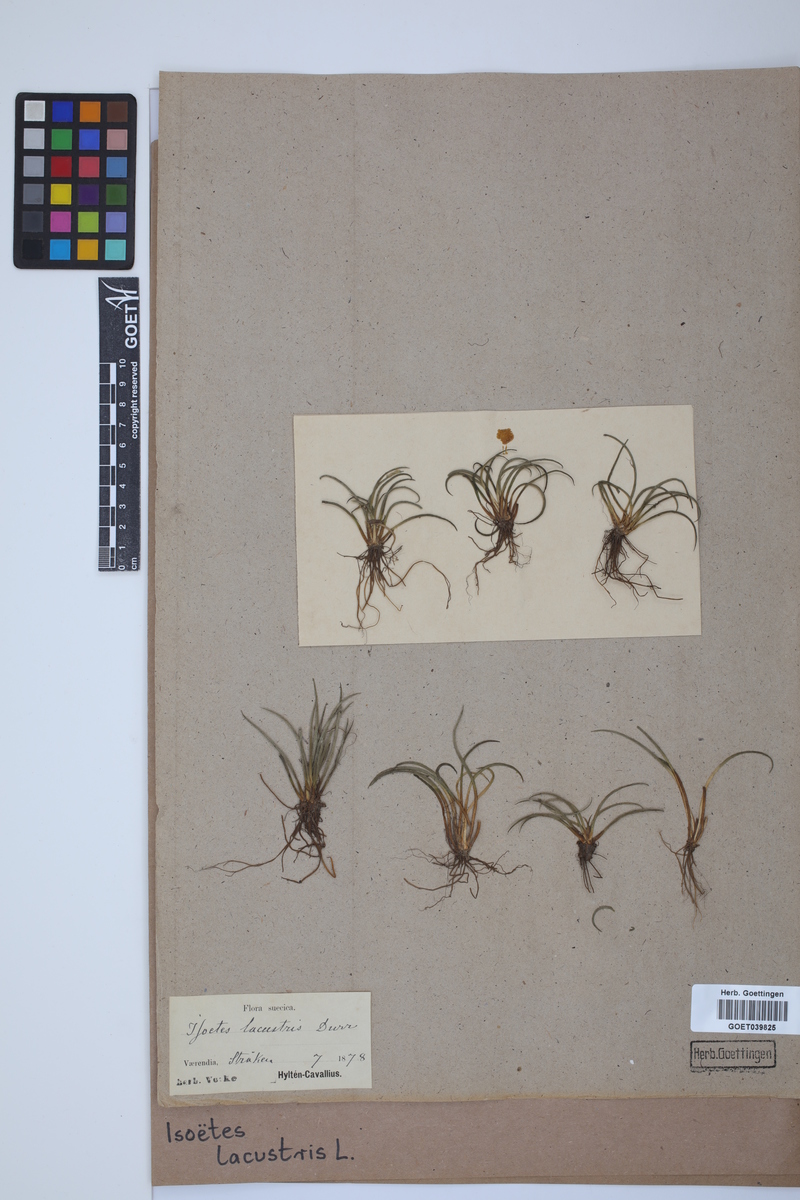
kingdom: Plantae
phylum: Tracheophyta
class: Lycopodiopsida
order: Isoetales
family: Isoetaceae
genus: Isoetes
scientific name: Isoetes lacustris
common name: Common quillwort
